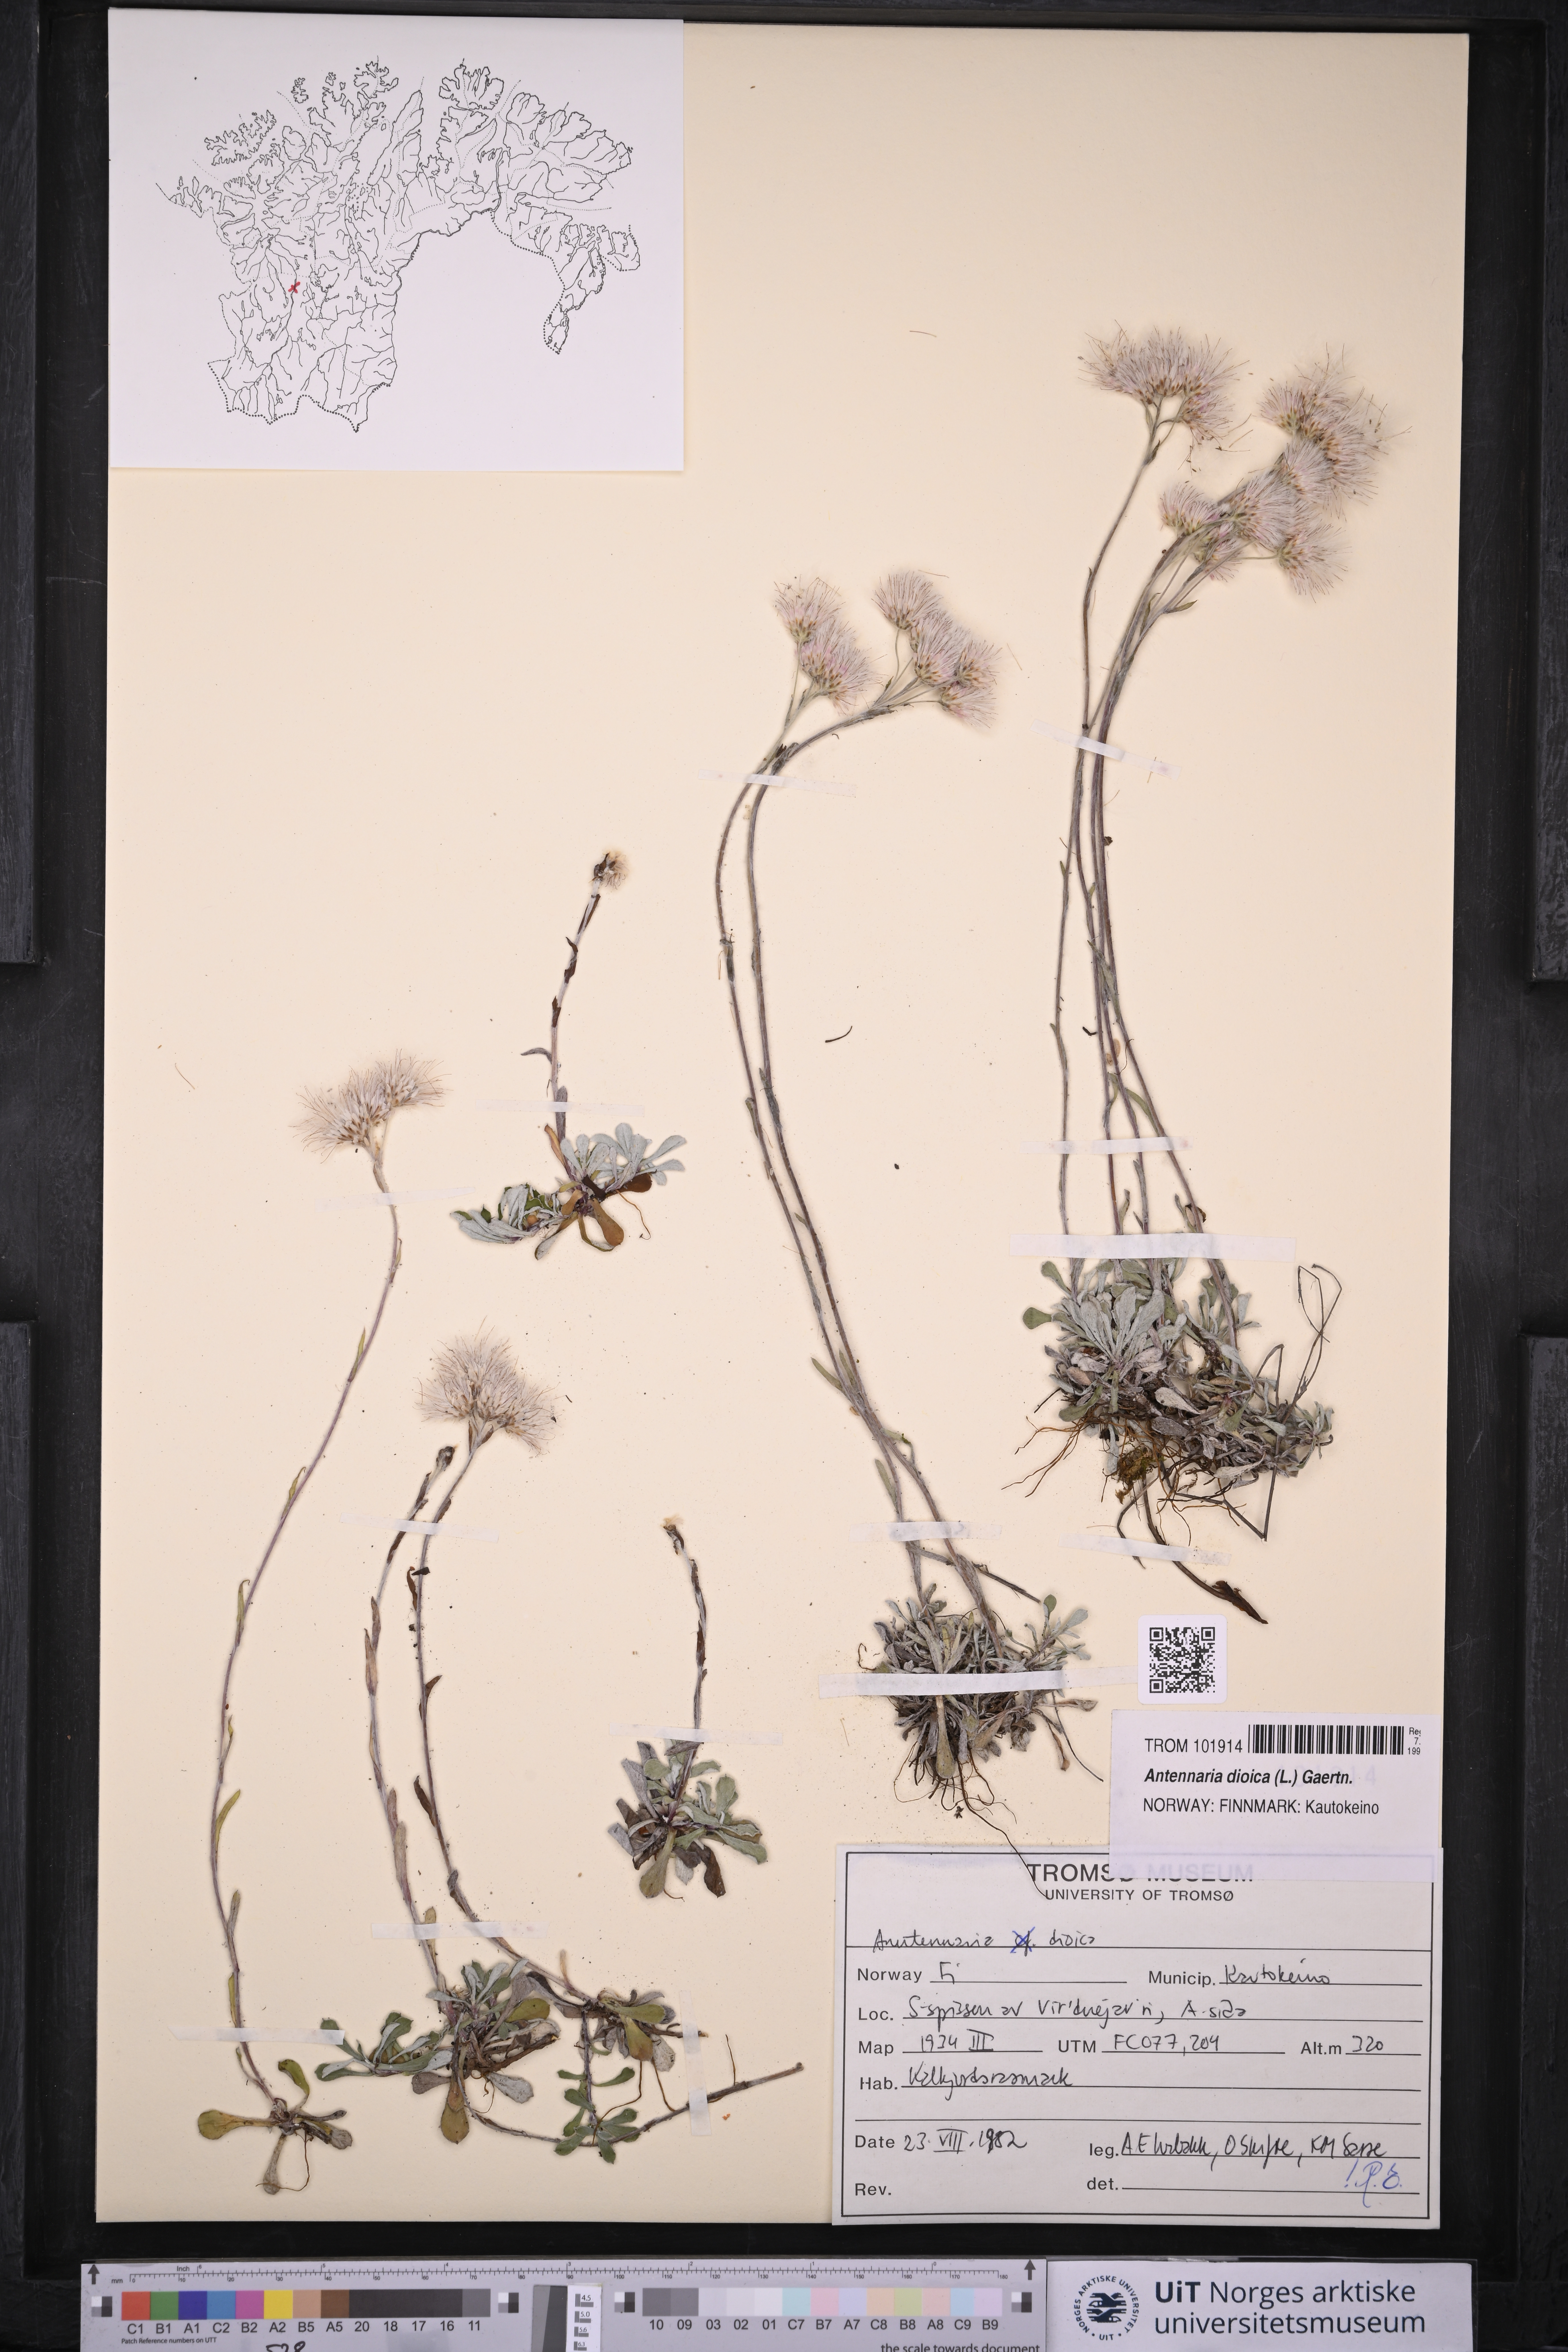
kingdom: Plantae
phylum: Tracheophyta
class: Magnoliopsida
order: Asterales
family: Asteraceae
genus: Antennaria
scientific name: Antennaria dioica
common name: Mountain everlasting
